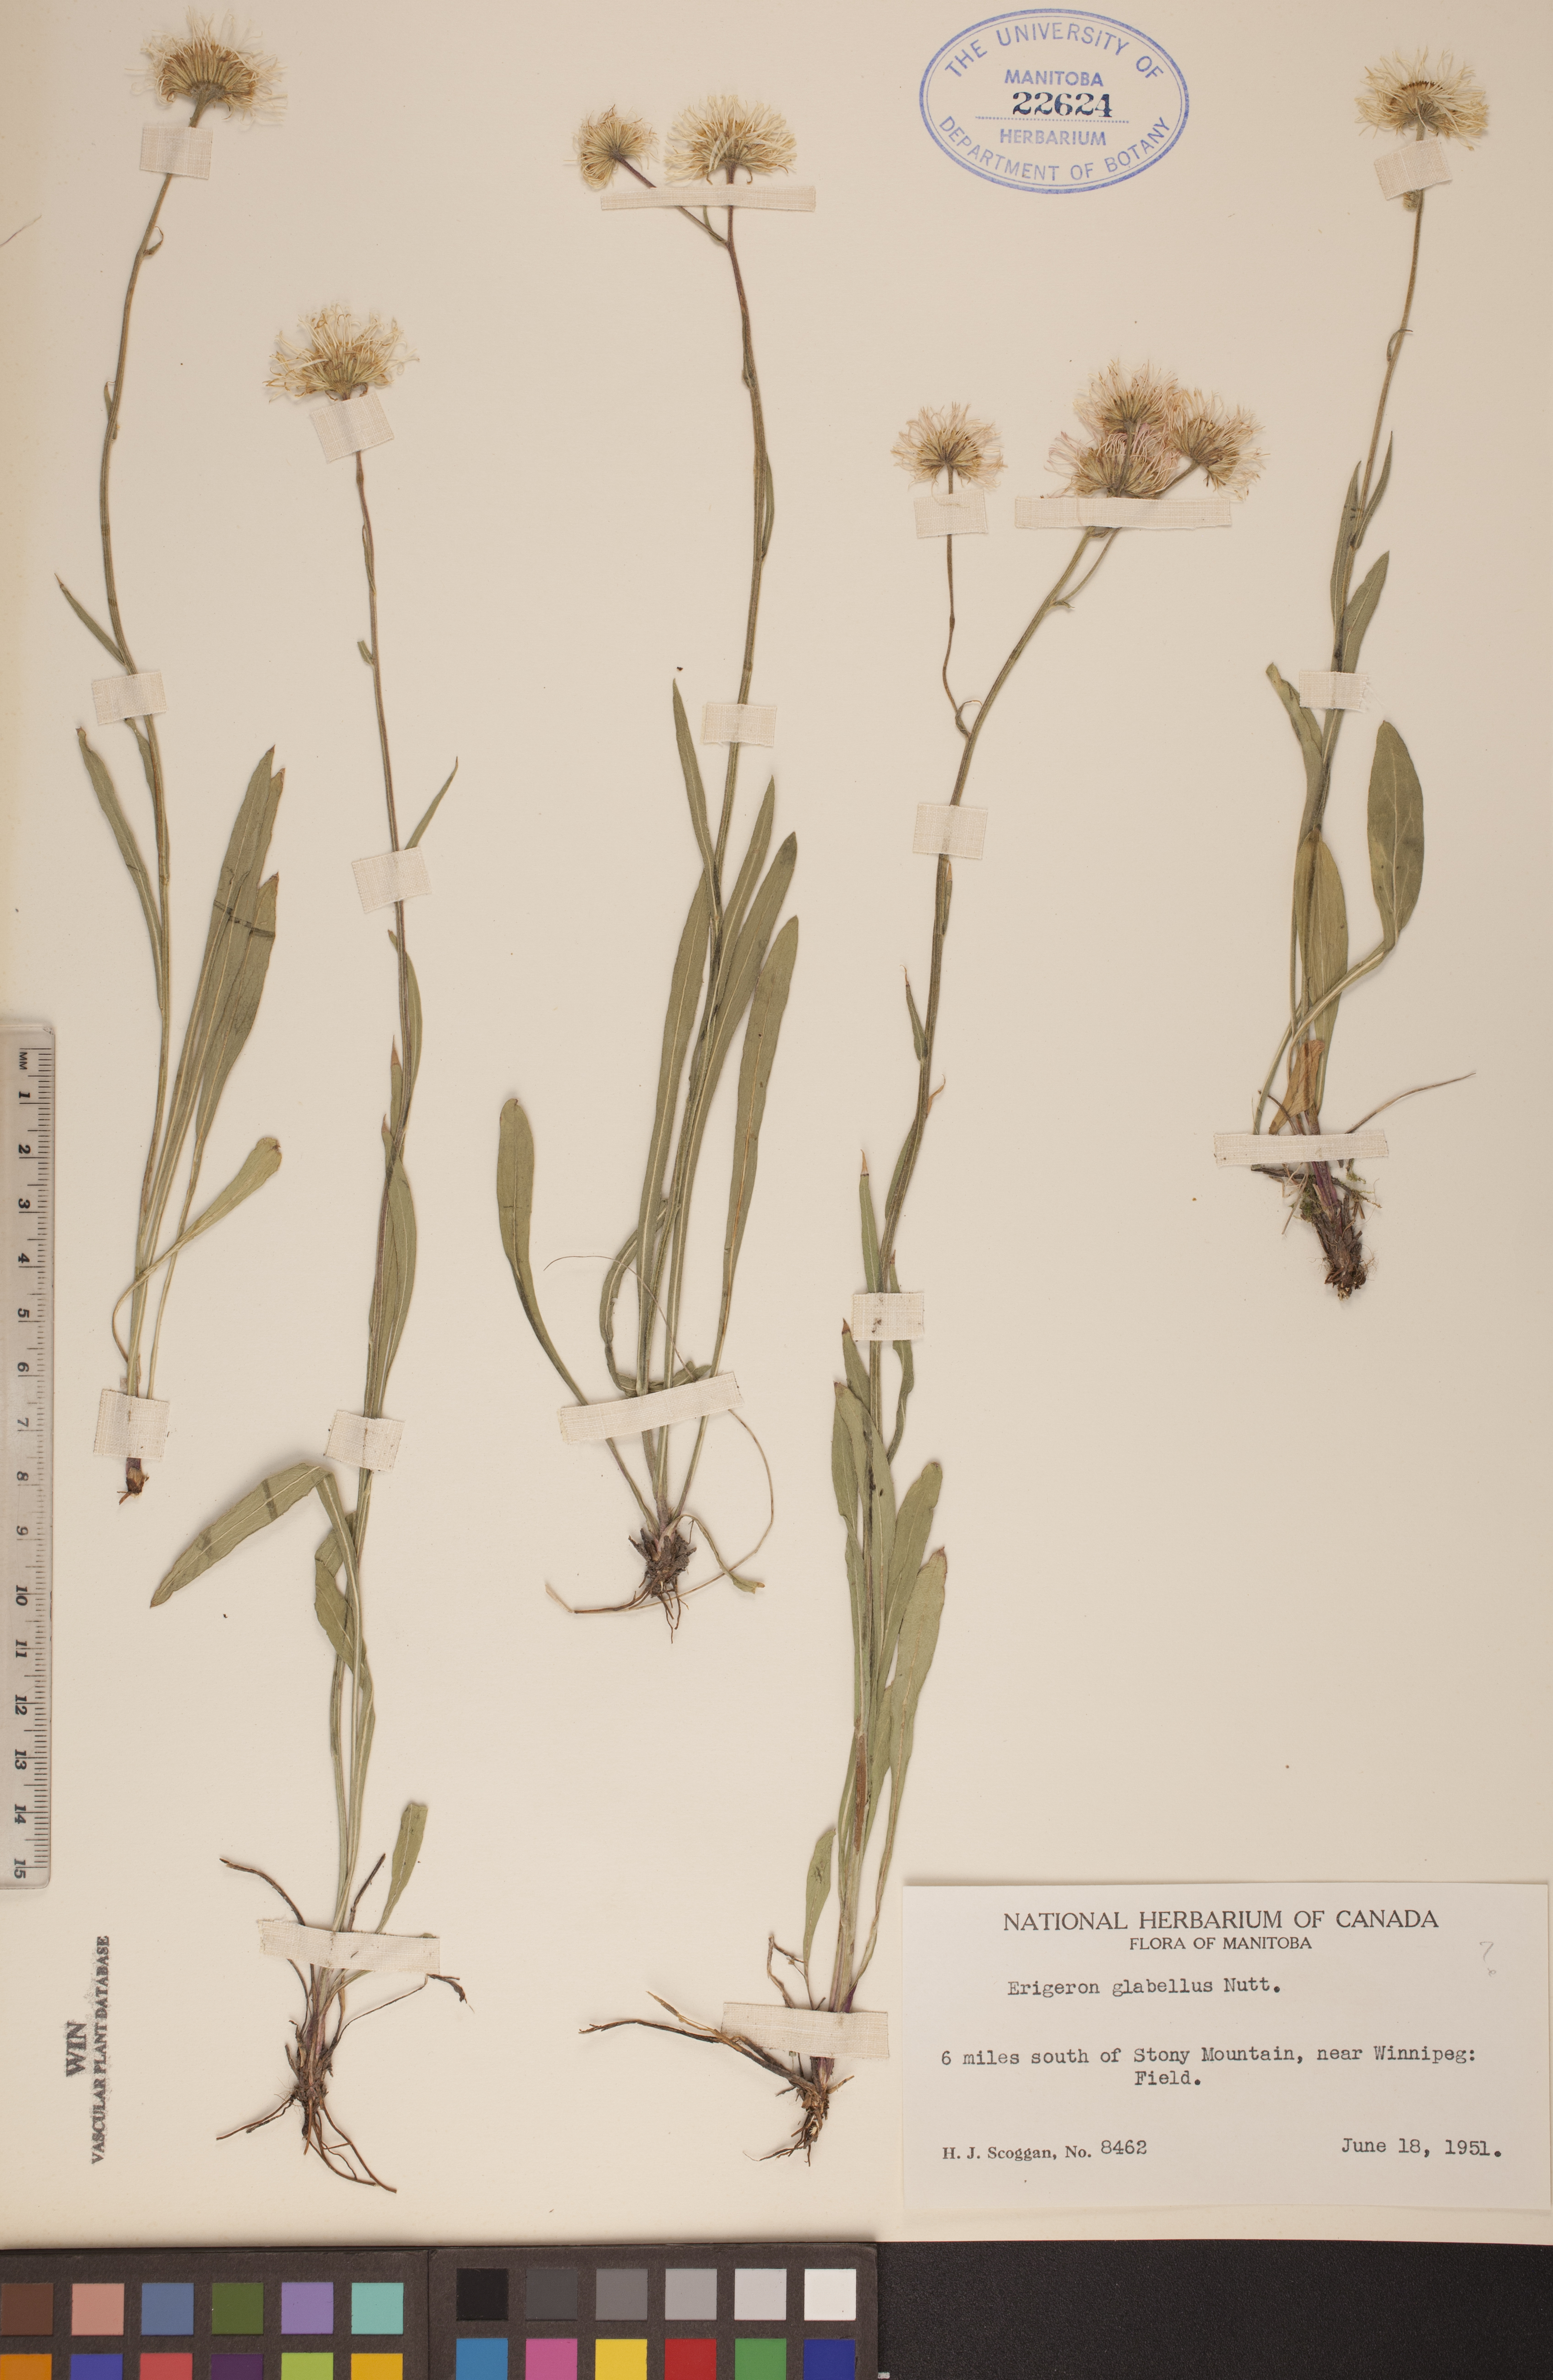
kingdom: Plantae
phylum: Tracheophyta
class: Magnoliopsida
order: Asterales
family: Asteraceae
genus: Erigeron
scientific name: Erigeron glabellus
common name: Smooth fleabane
